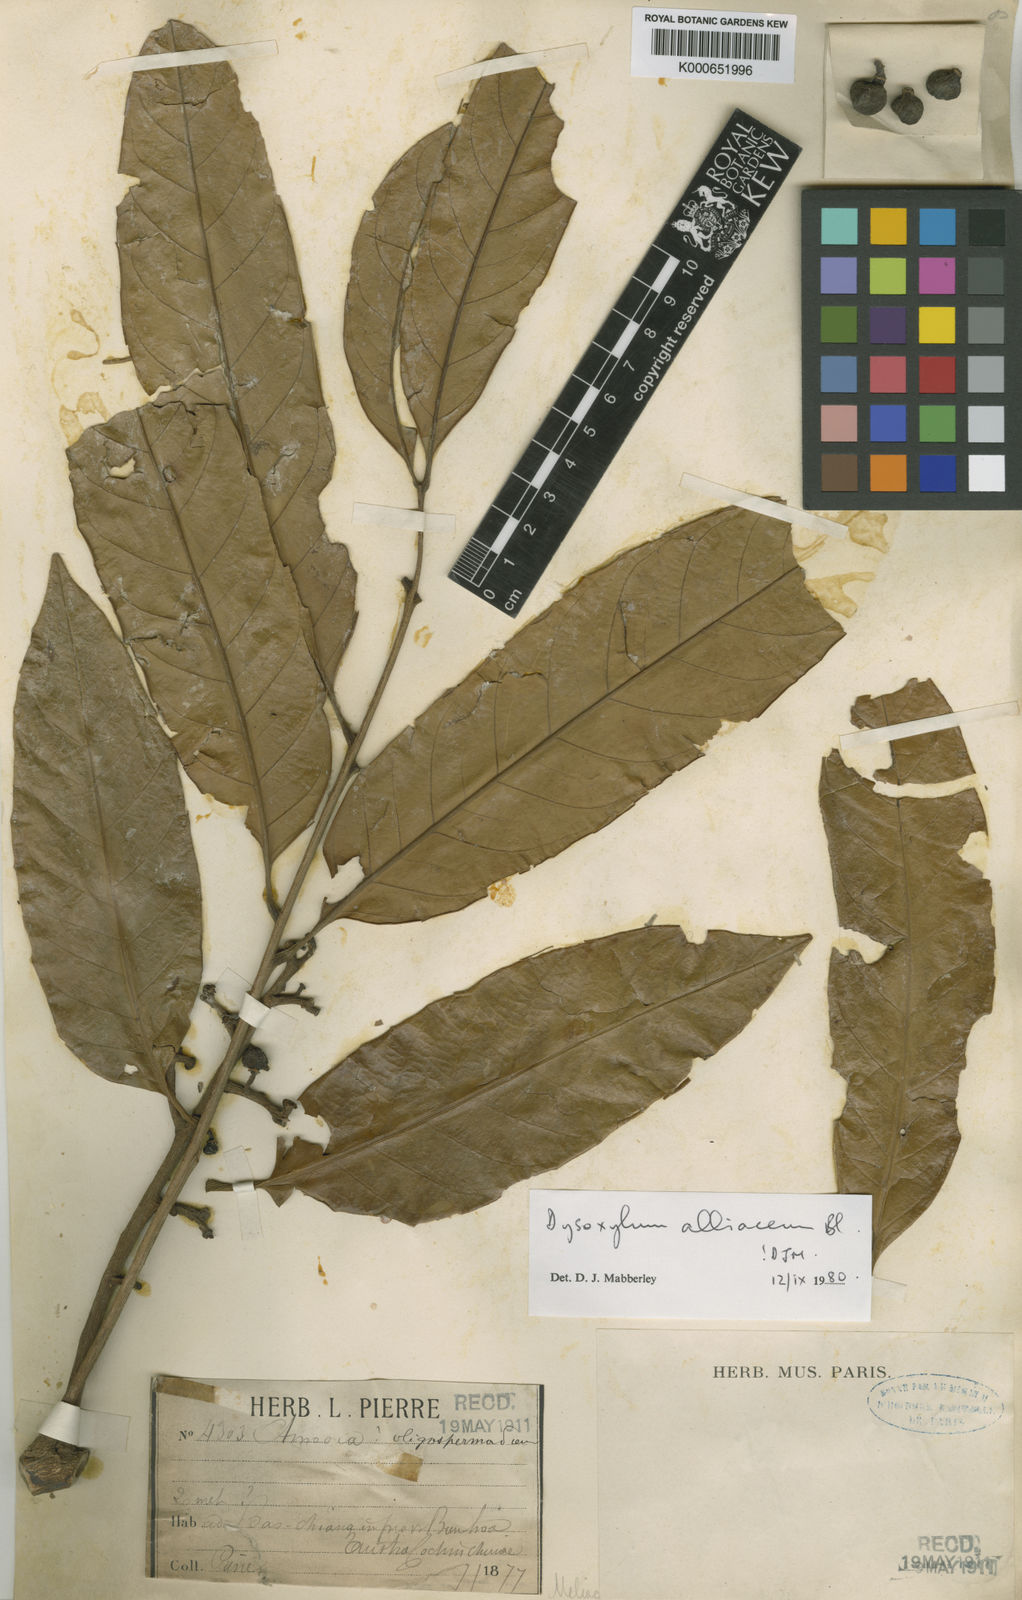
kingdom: Plantae
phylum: Tracheophyta
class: Magnoliopsida
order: Sapindales
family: Meliaceae
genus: Prasoxylon
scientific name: Prasoxylon alliaceum
